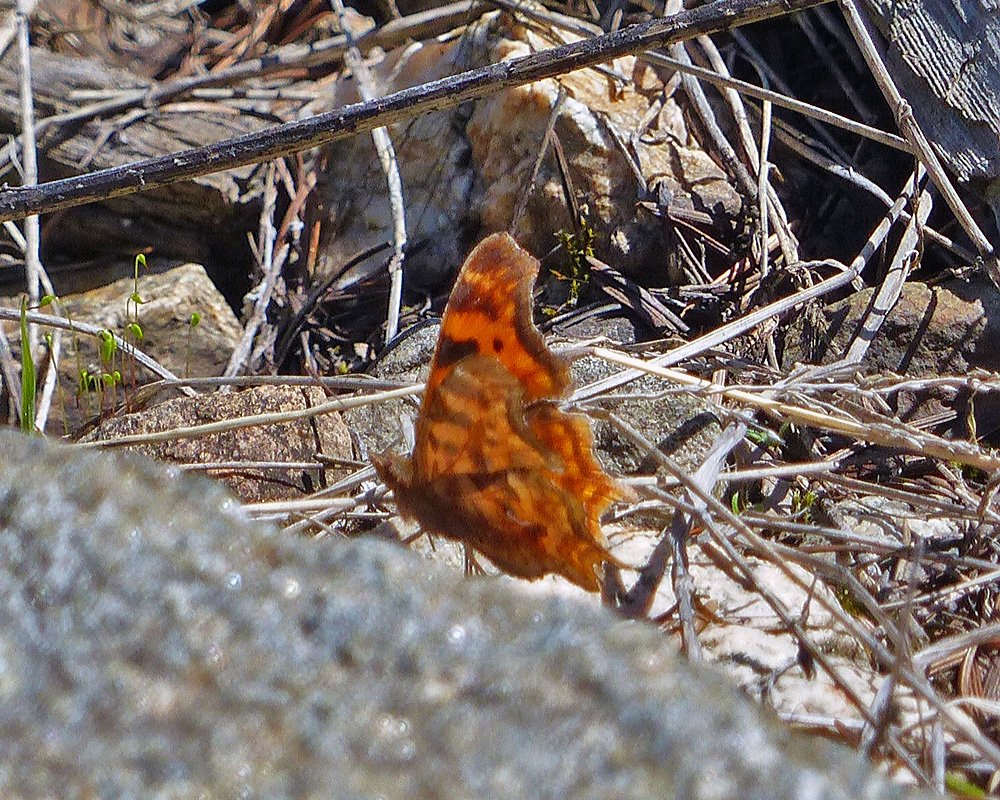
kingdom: Animalia
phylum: Arthropoda
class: Insecta
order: Lepidoptera
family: Nymphalidae
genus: Polygonia
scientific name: Polygonia satyrus
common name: Satyr Comma
